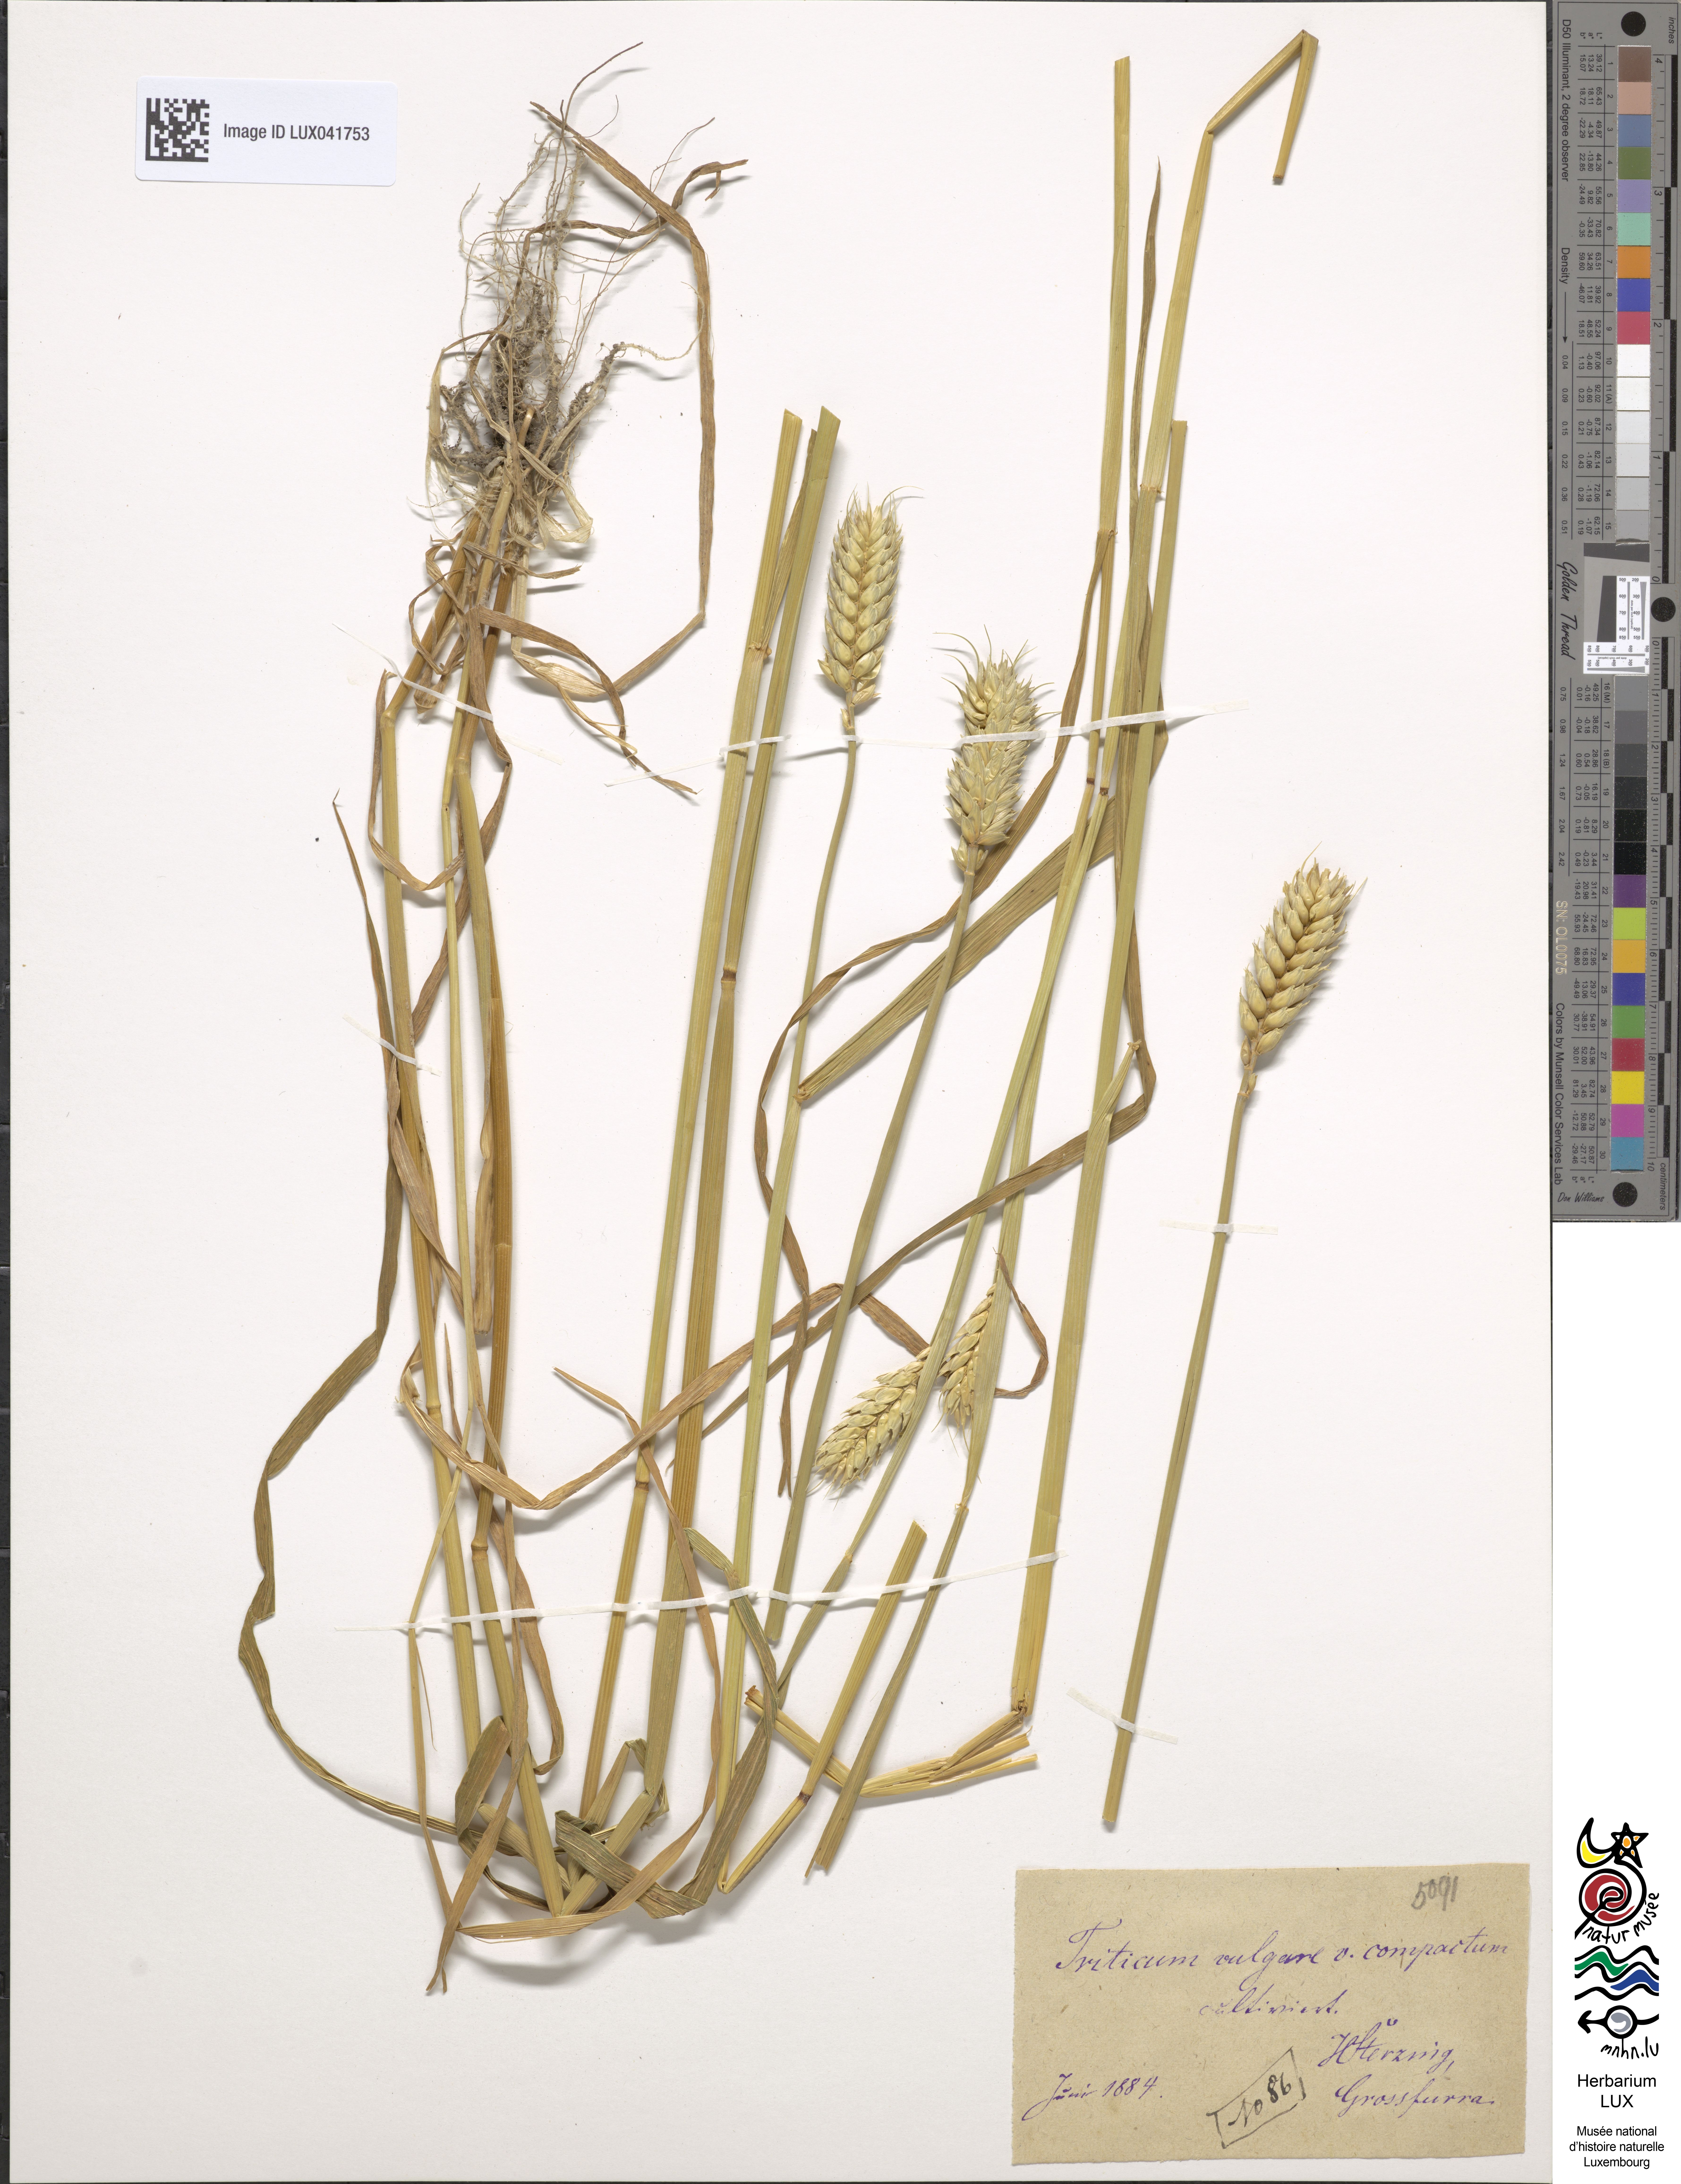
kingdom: Plantae
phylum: Tracheophyta
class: Liliopsida
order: Poales
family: Poaceae
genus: Triticum
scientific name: Triticum aestivum
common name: Common wheat
